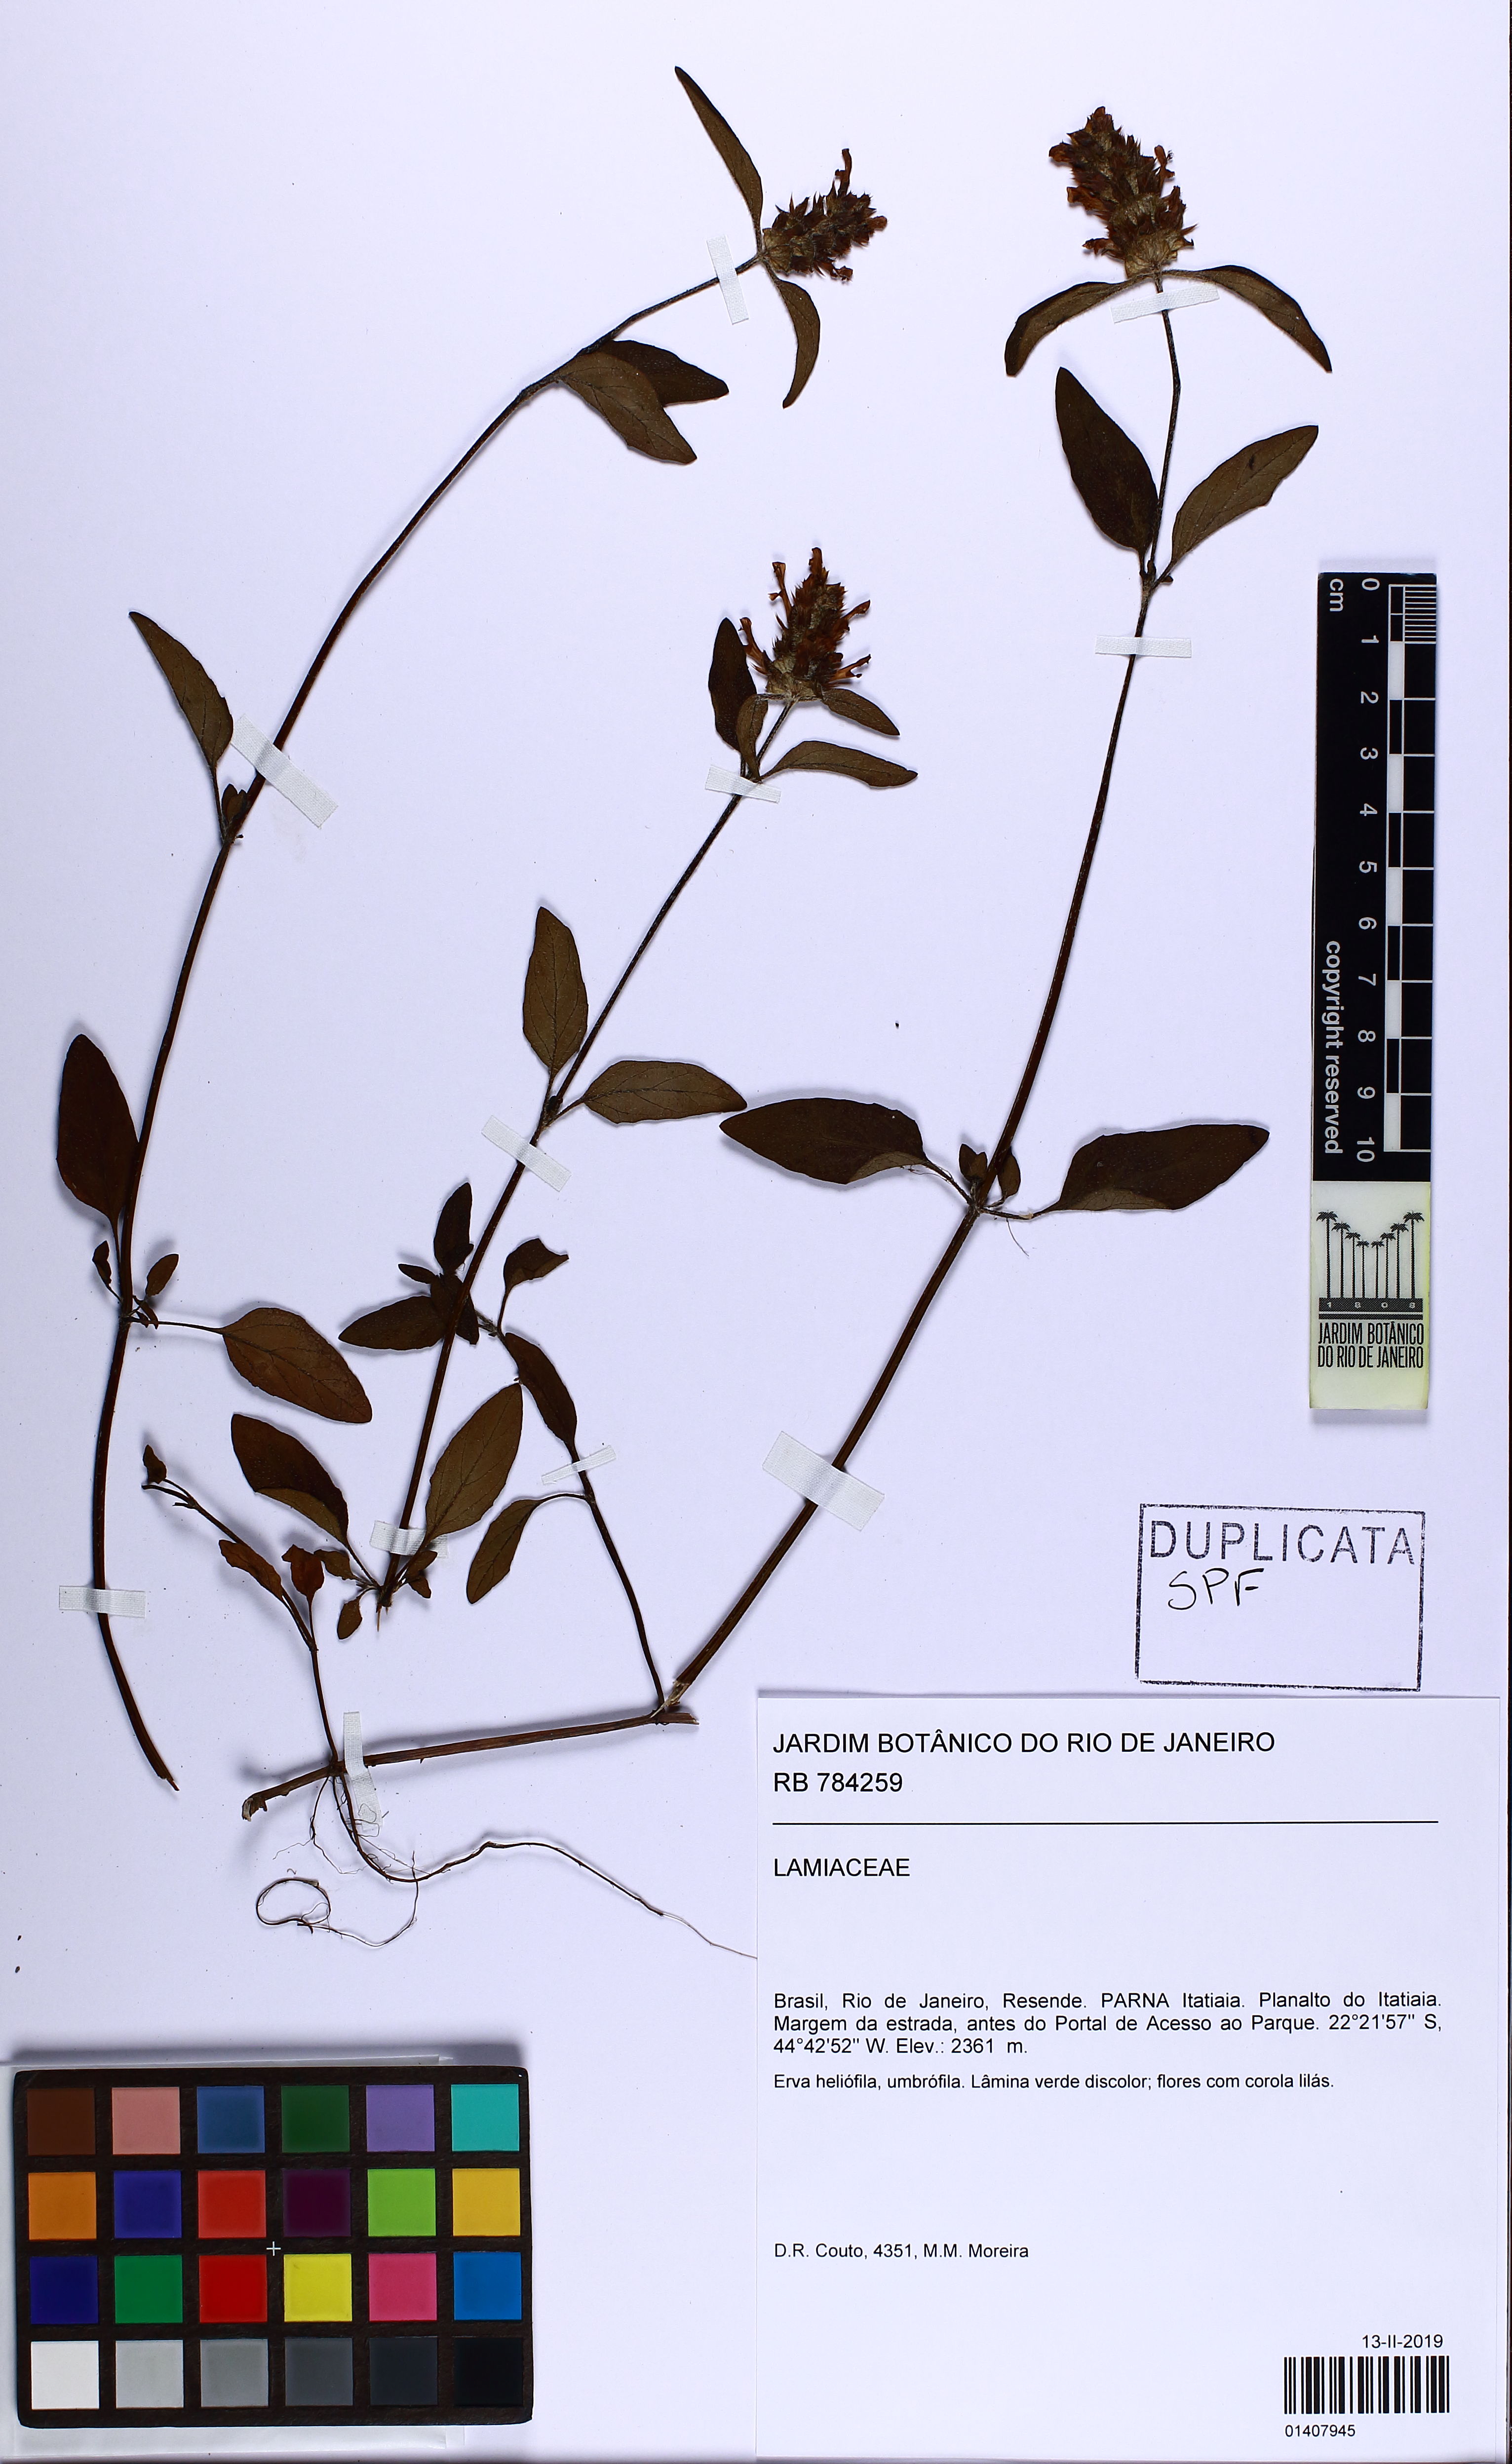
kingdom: Plantae
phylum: Tracheophyta
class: Magnoliopsida
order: Lamiales
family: Lamiaceae
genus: Prunella
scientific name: Prunella vulgaris
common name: Heal-all
